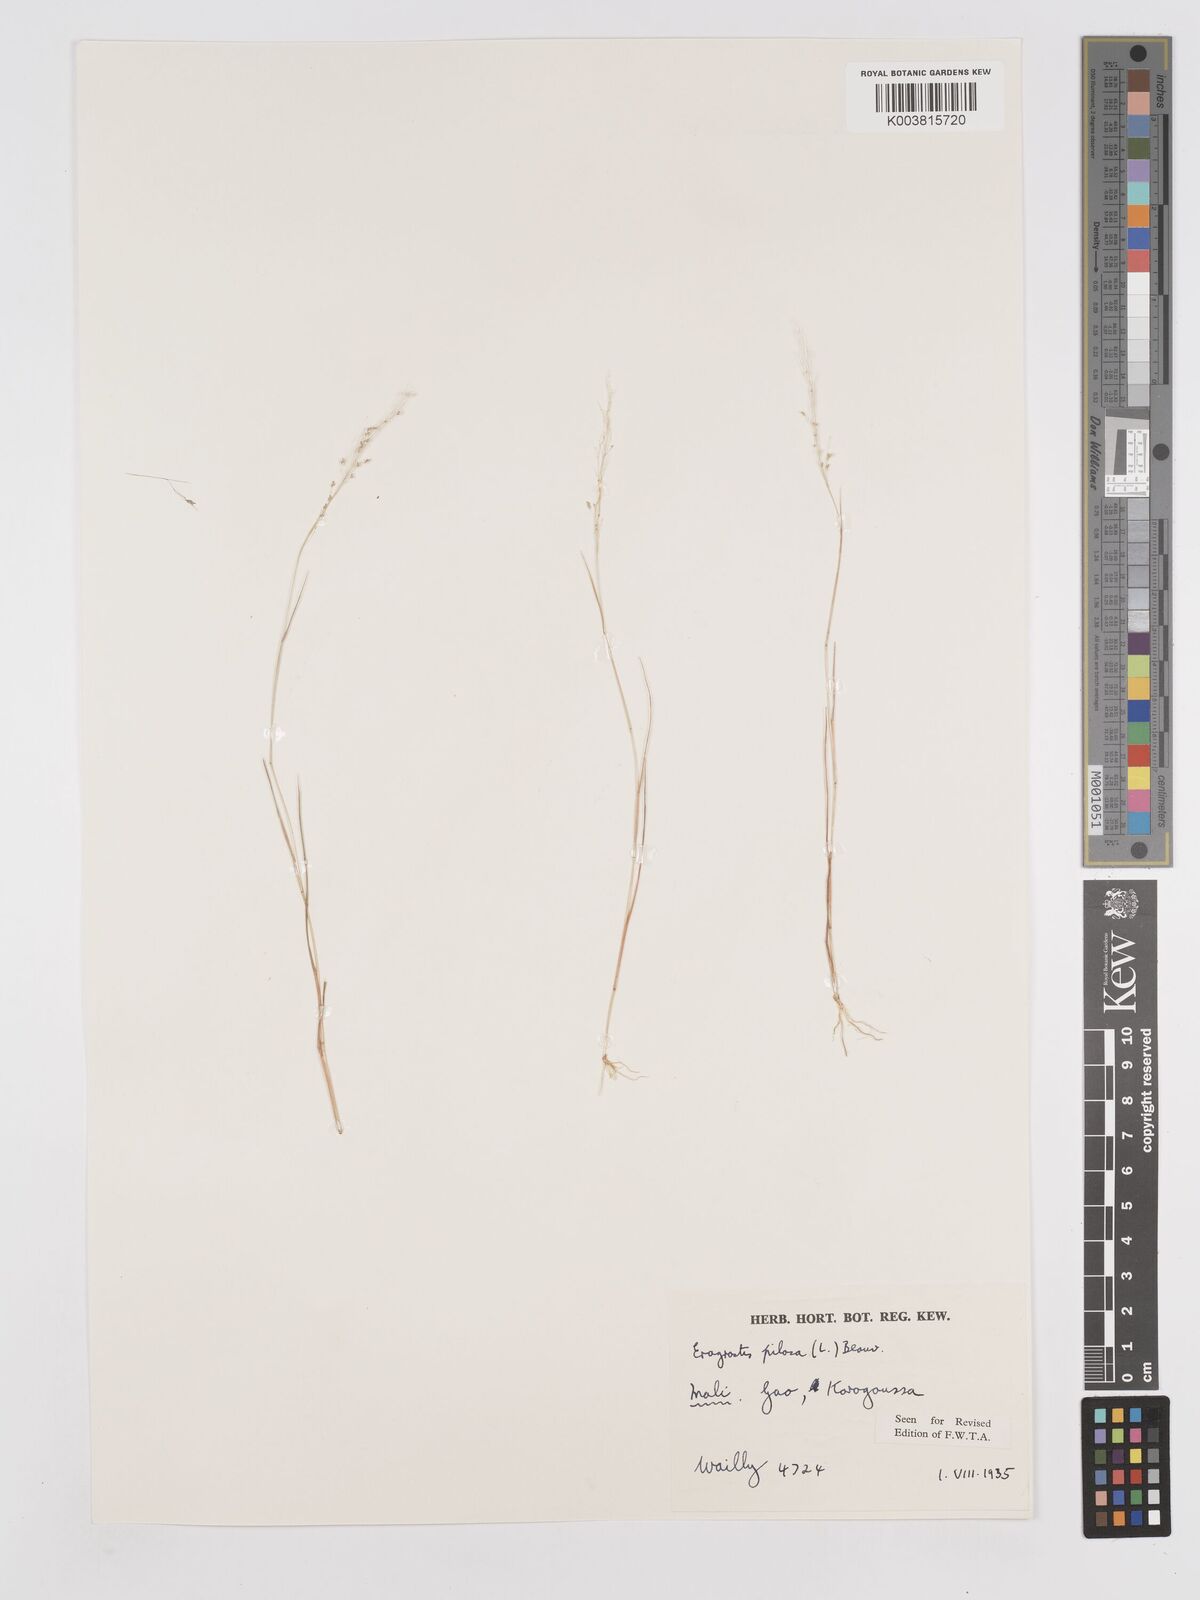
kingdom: Plantae
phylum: Tracheophyta
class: Liliopsida
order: Poales
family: Poaceae
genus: Eragrostis
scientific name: Eragrostis pilosa
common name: Indian lovegrass
